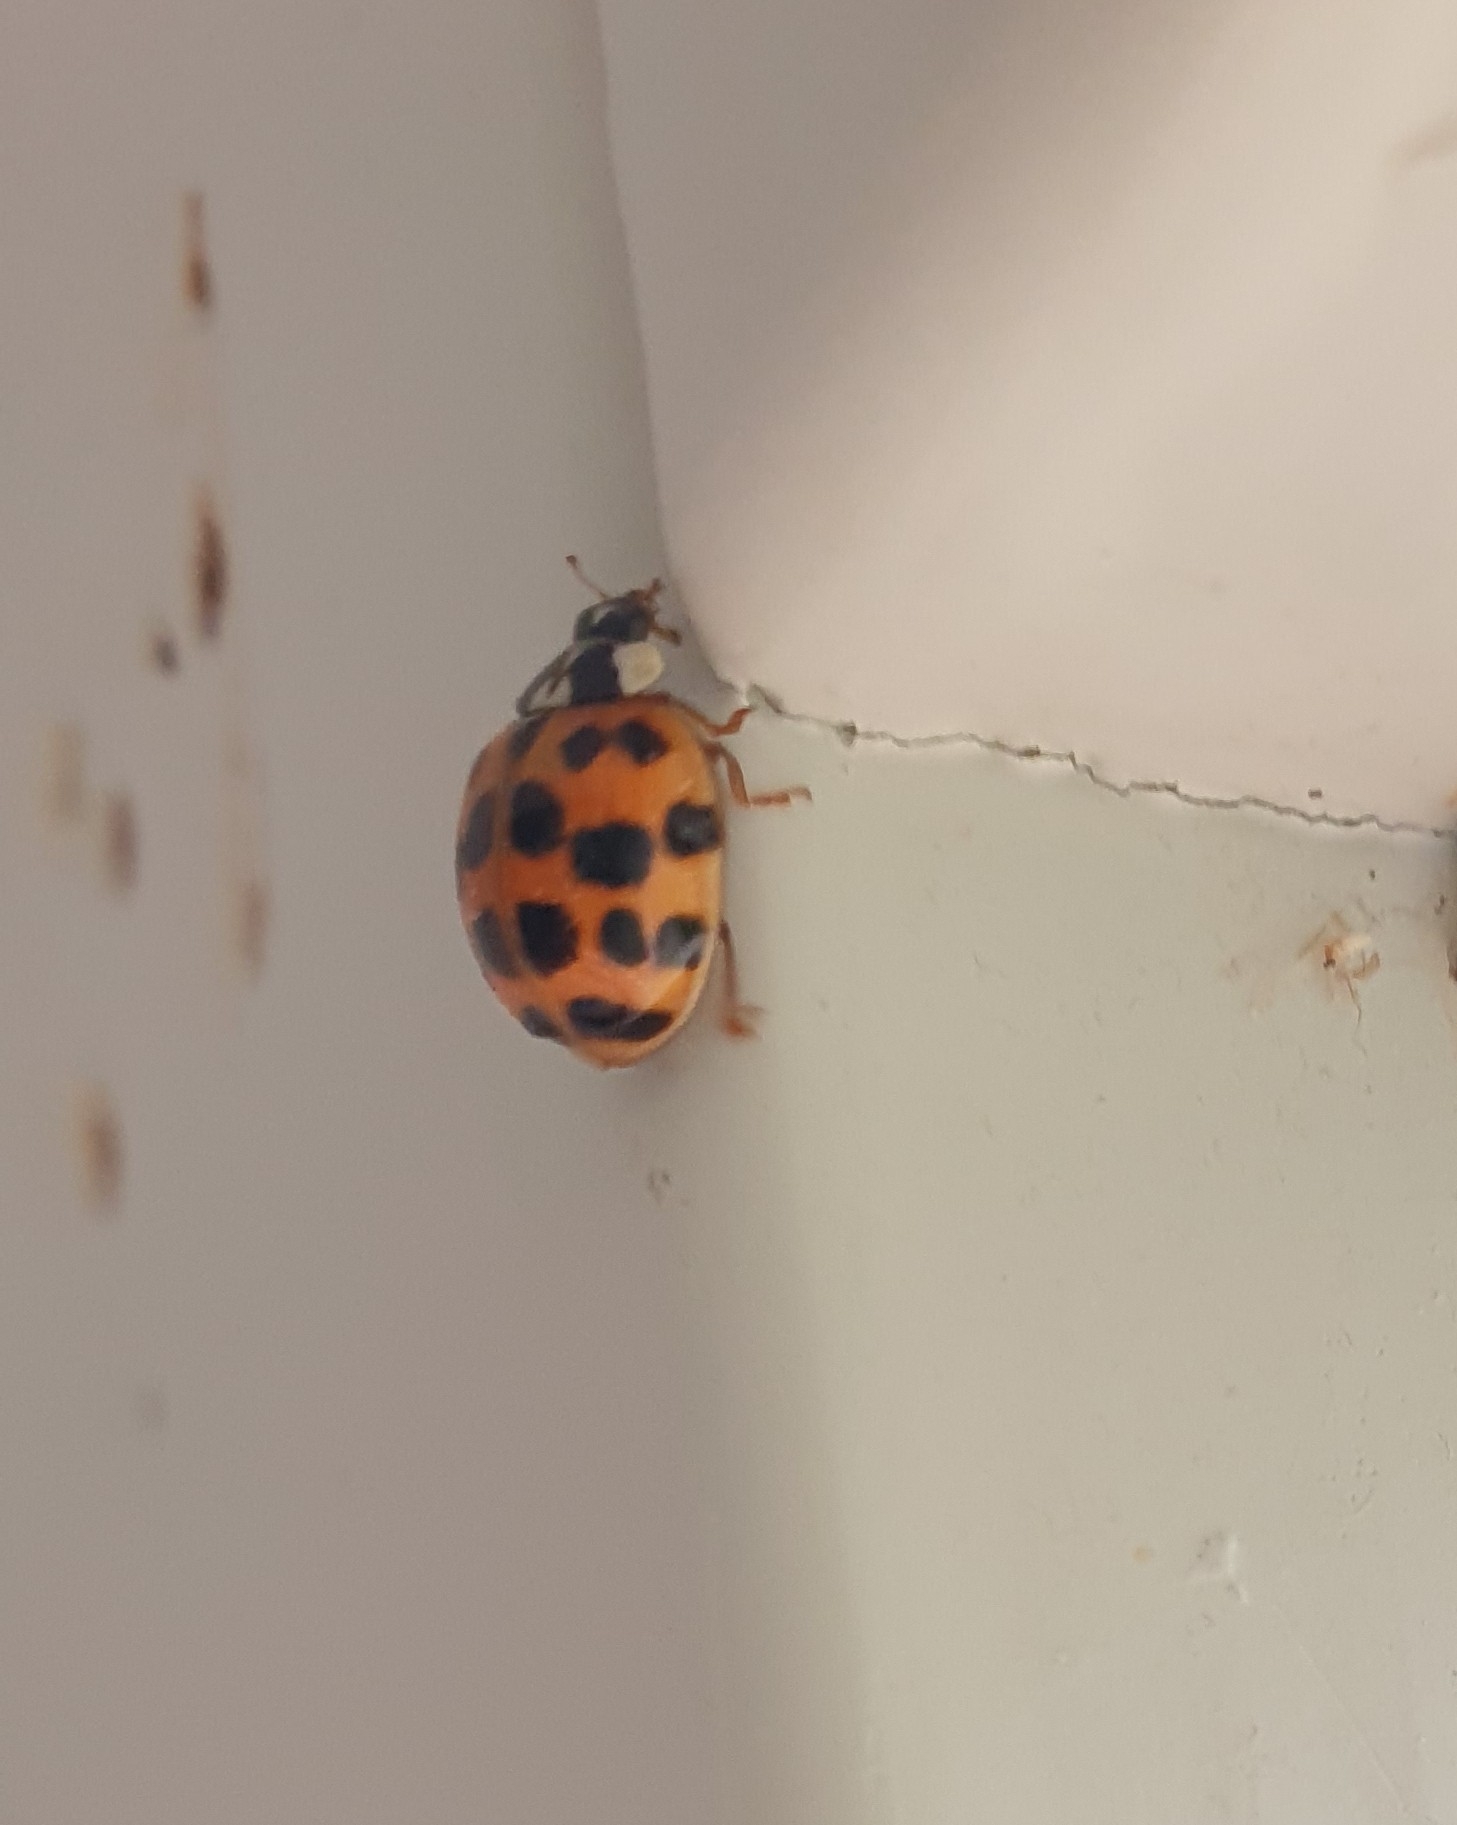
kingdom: Animalia
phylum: Arthropoda
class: Insecta
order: Coleoptera
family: Coccinellidae
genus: Harmonia
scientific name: Harmonia axyridis
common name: Harlekinmariehøne
